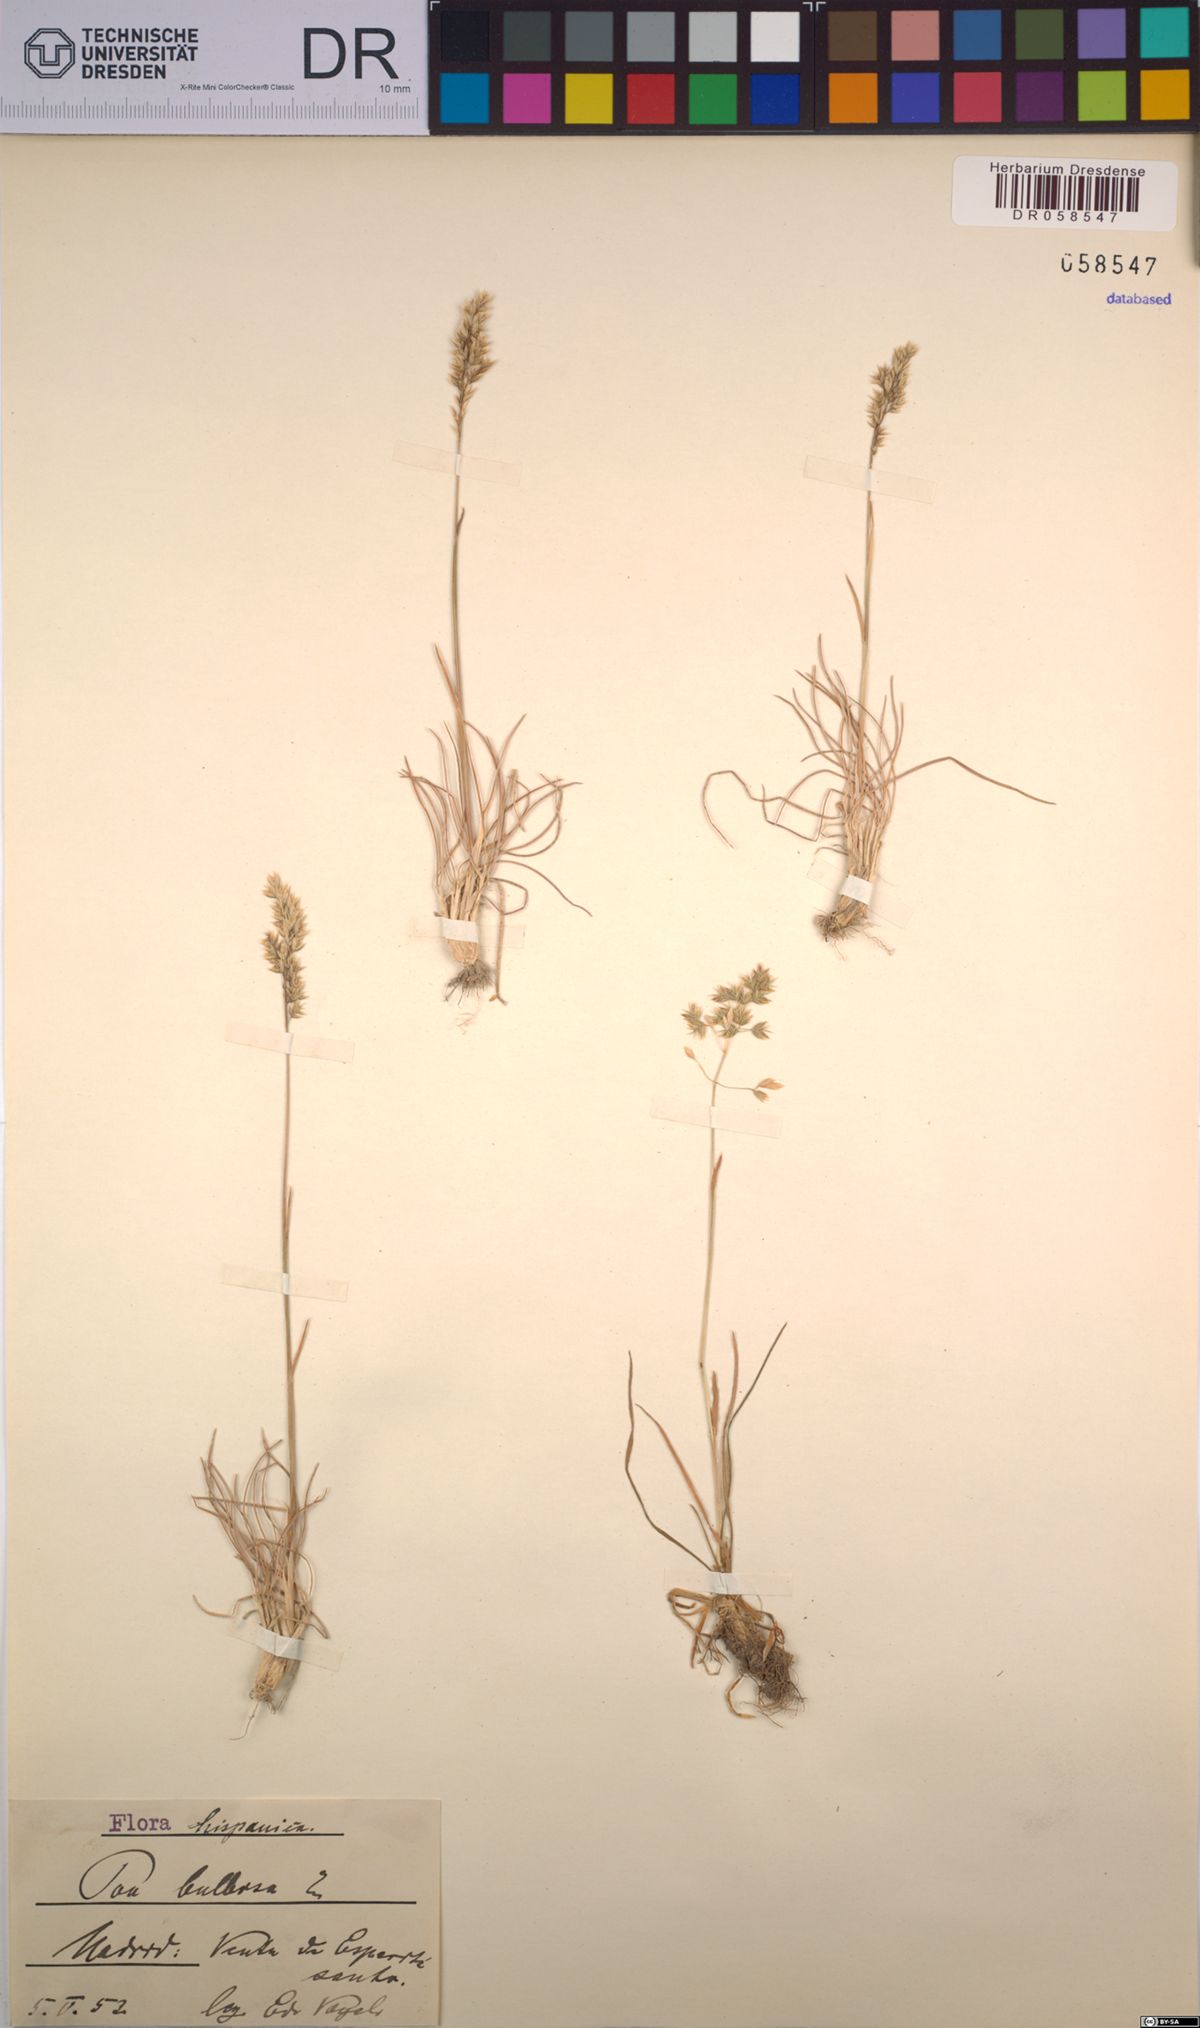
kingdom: Plantae
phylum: Tracheophyta
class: Liliopsida
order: Poales
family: Poaceae
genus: Poa
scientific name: Poa bulbosa
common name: Bulbous bluegrass
